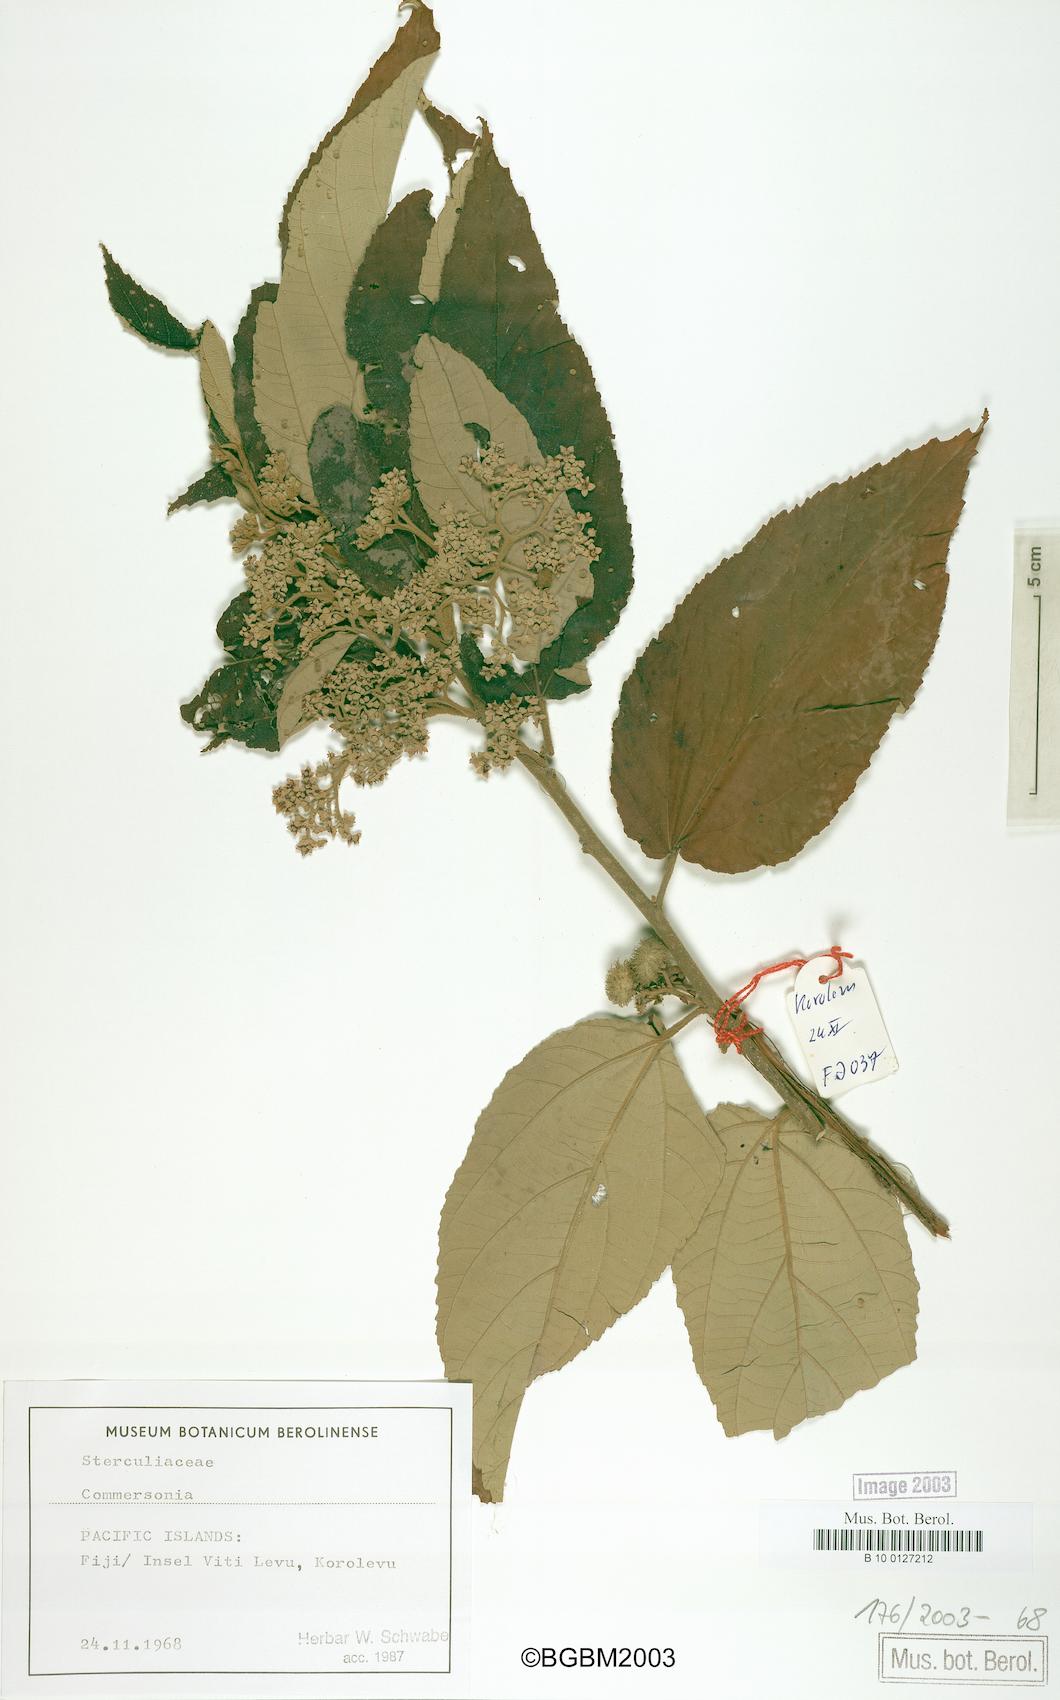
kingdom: Plantae
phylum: Tracheophyta
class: Magnoliopsida
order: Malvales
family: Malvaceae
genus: Commersonia
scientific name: Commersonia
